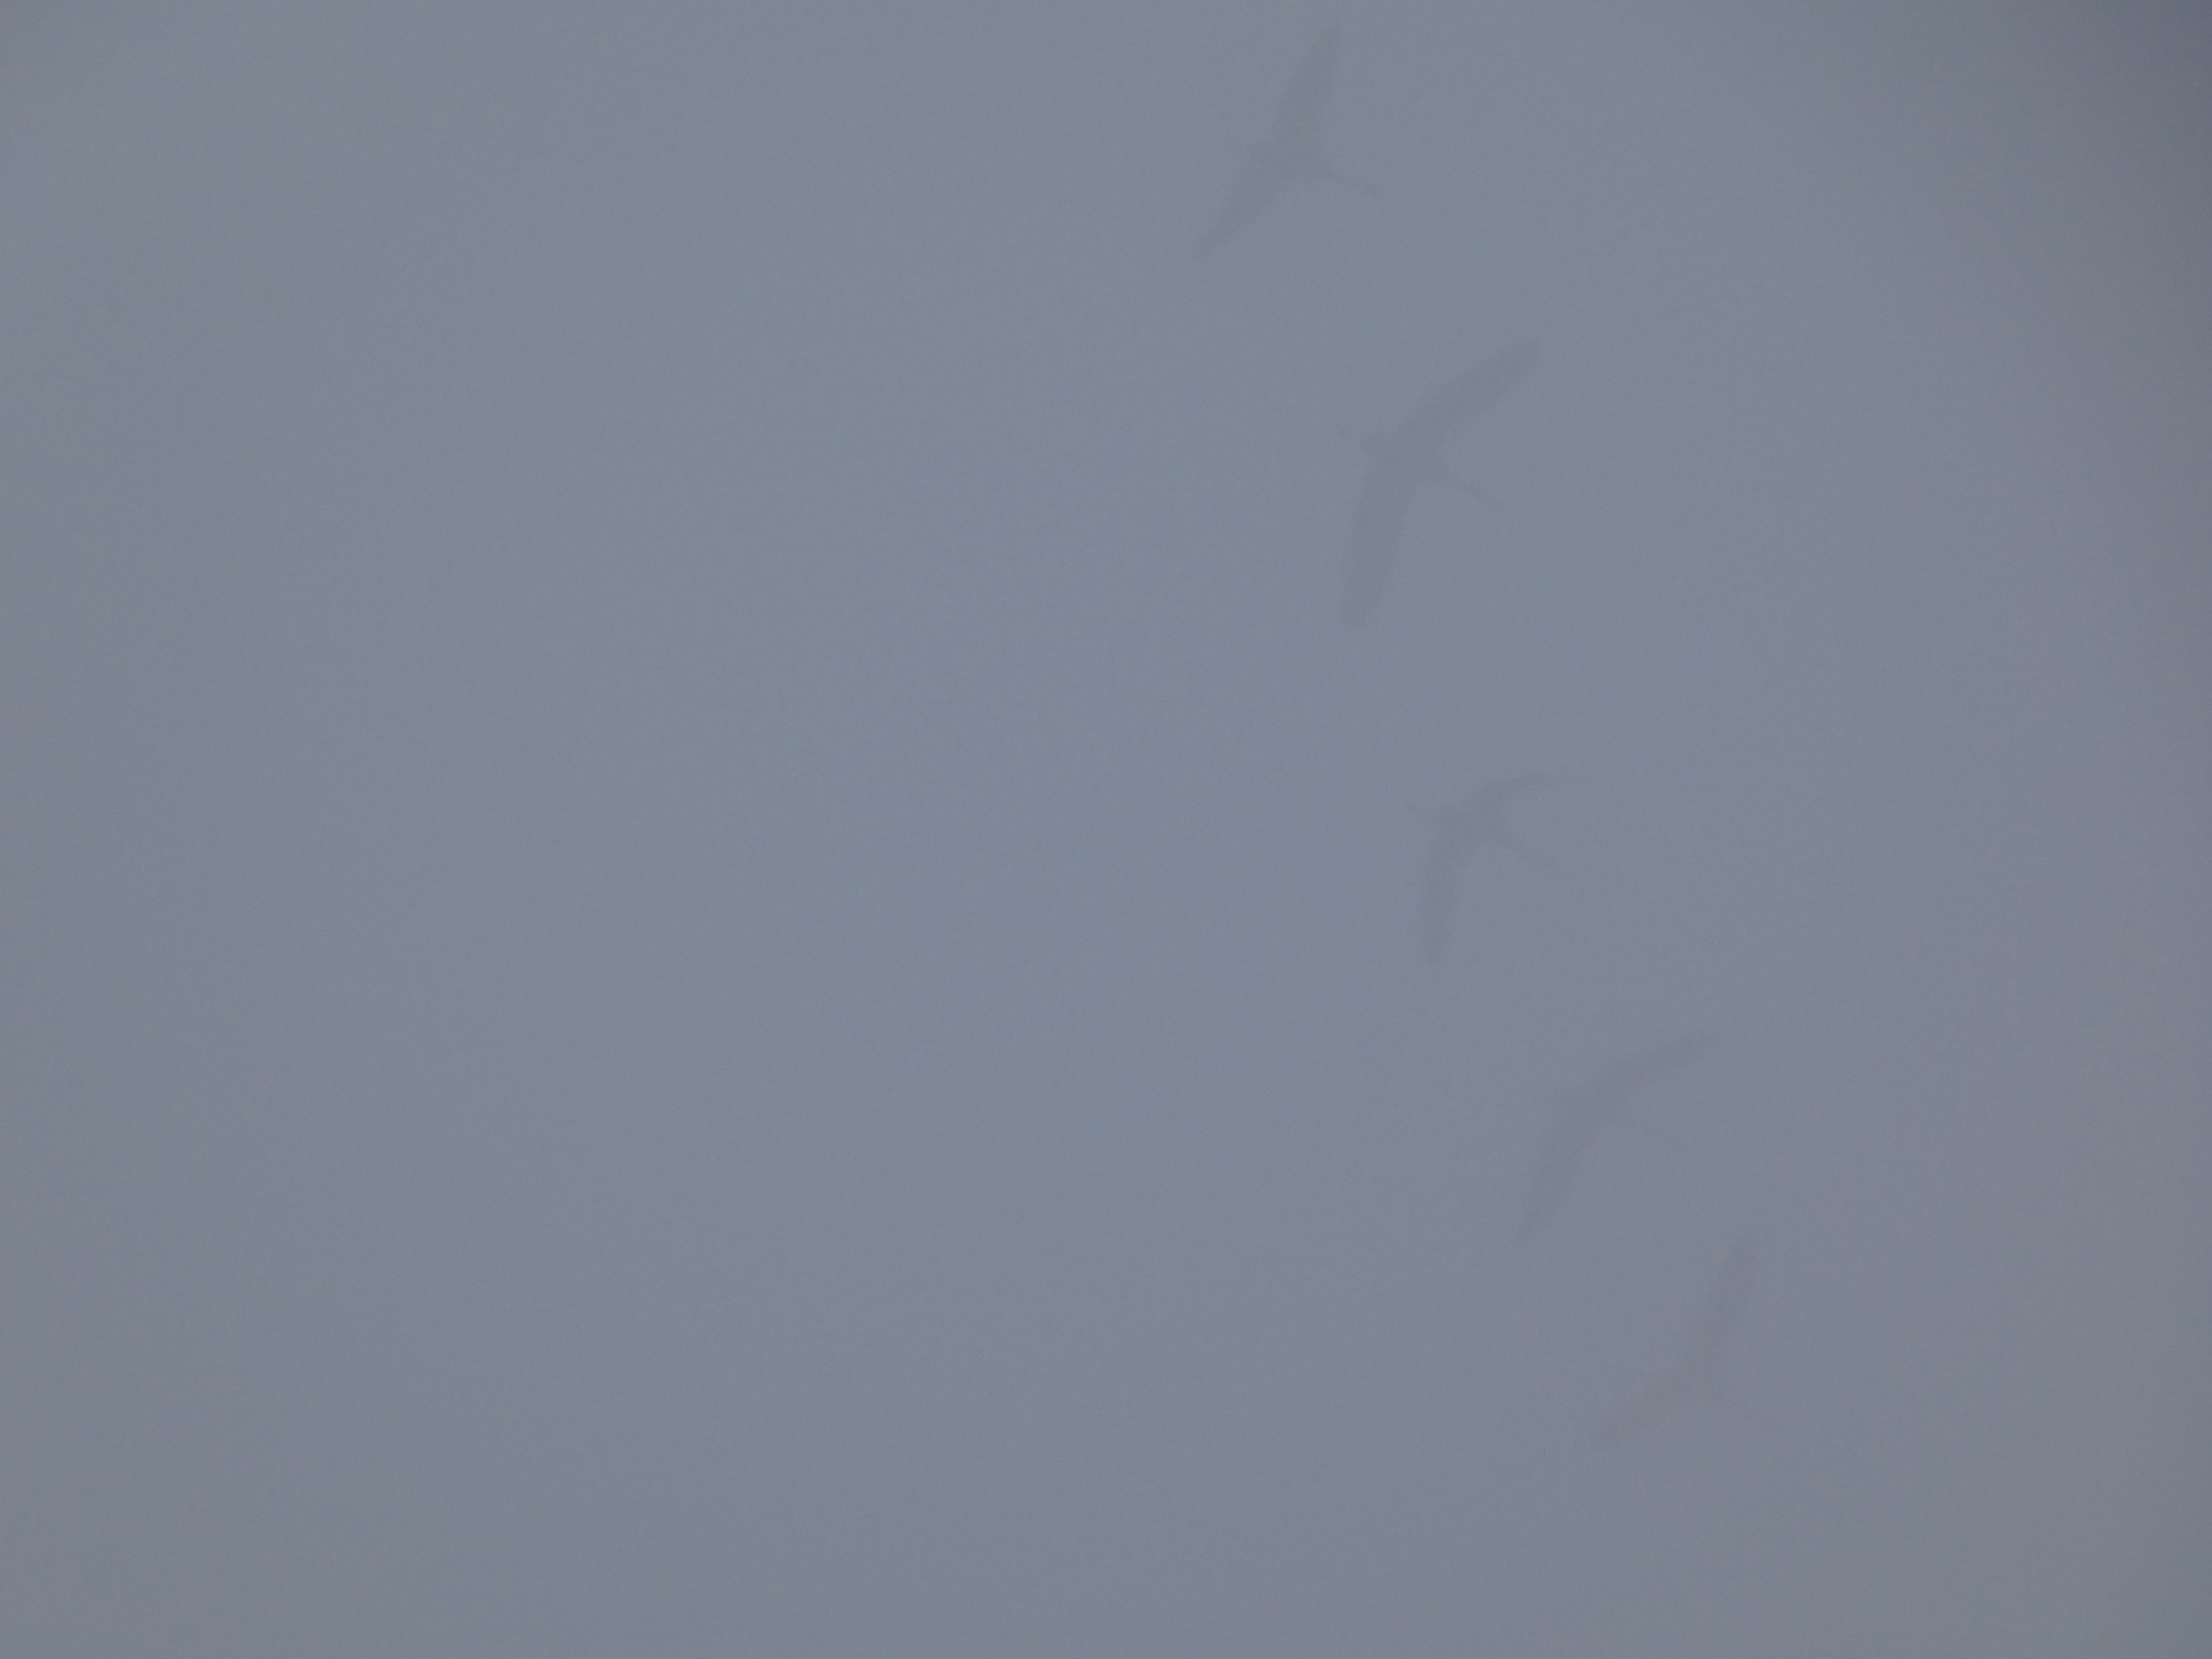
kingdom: Animalia
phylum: Chordata
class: Aves
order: Gruiformes
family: Gruidae
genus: Grus
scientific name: Grus grus
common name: Trane
